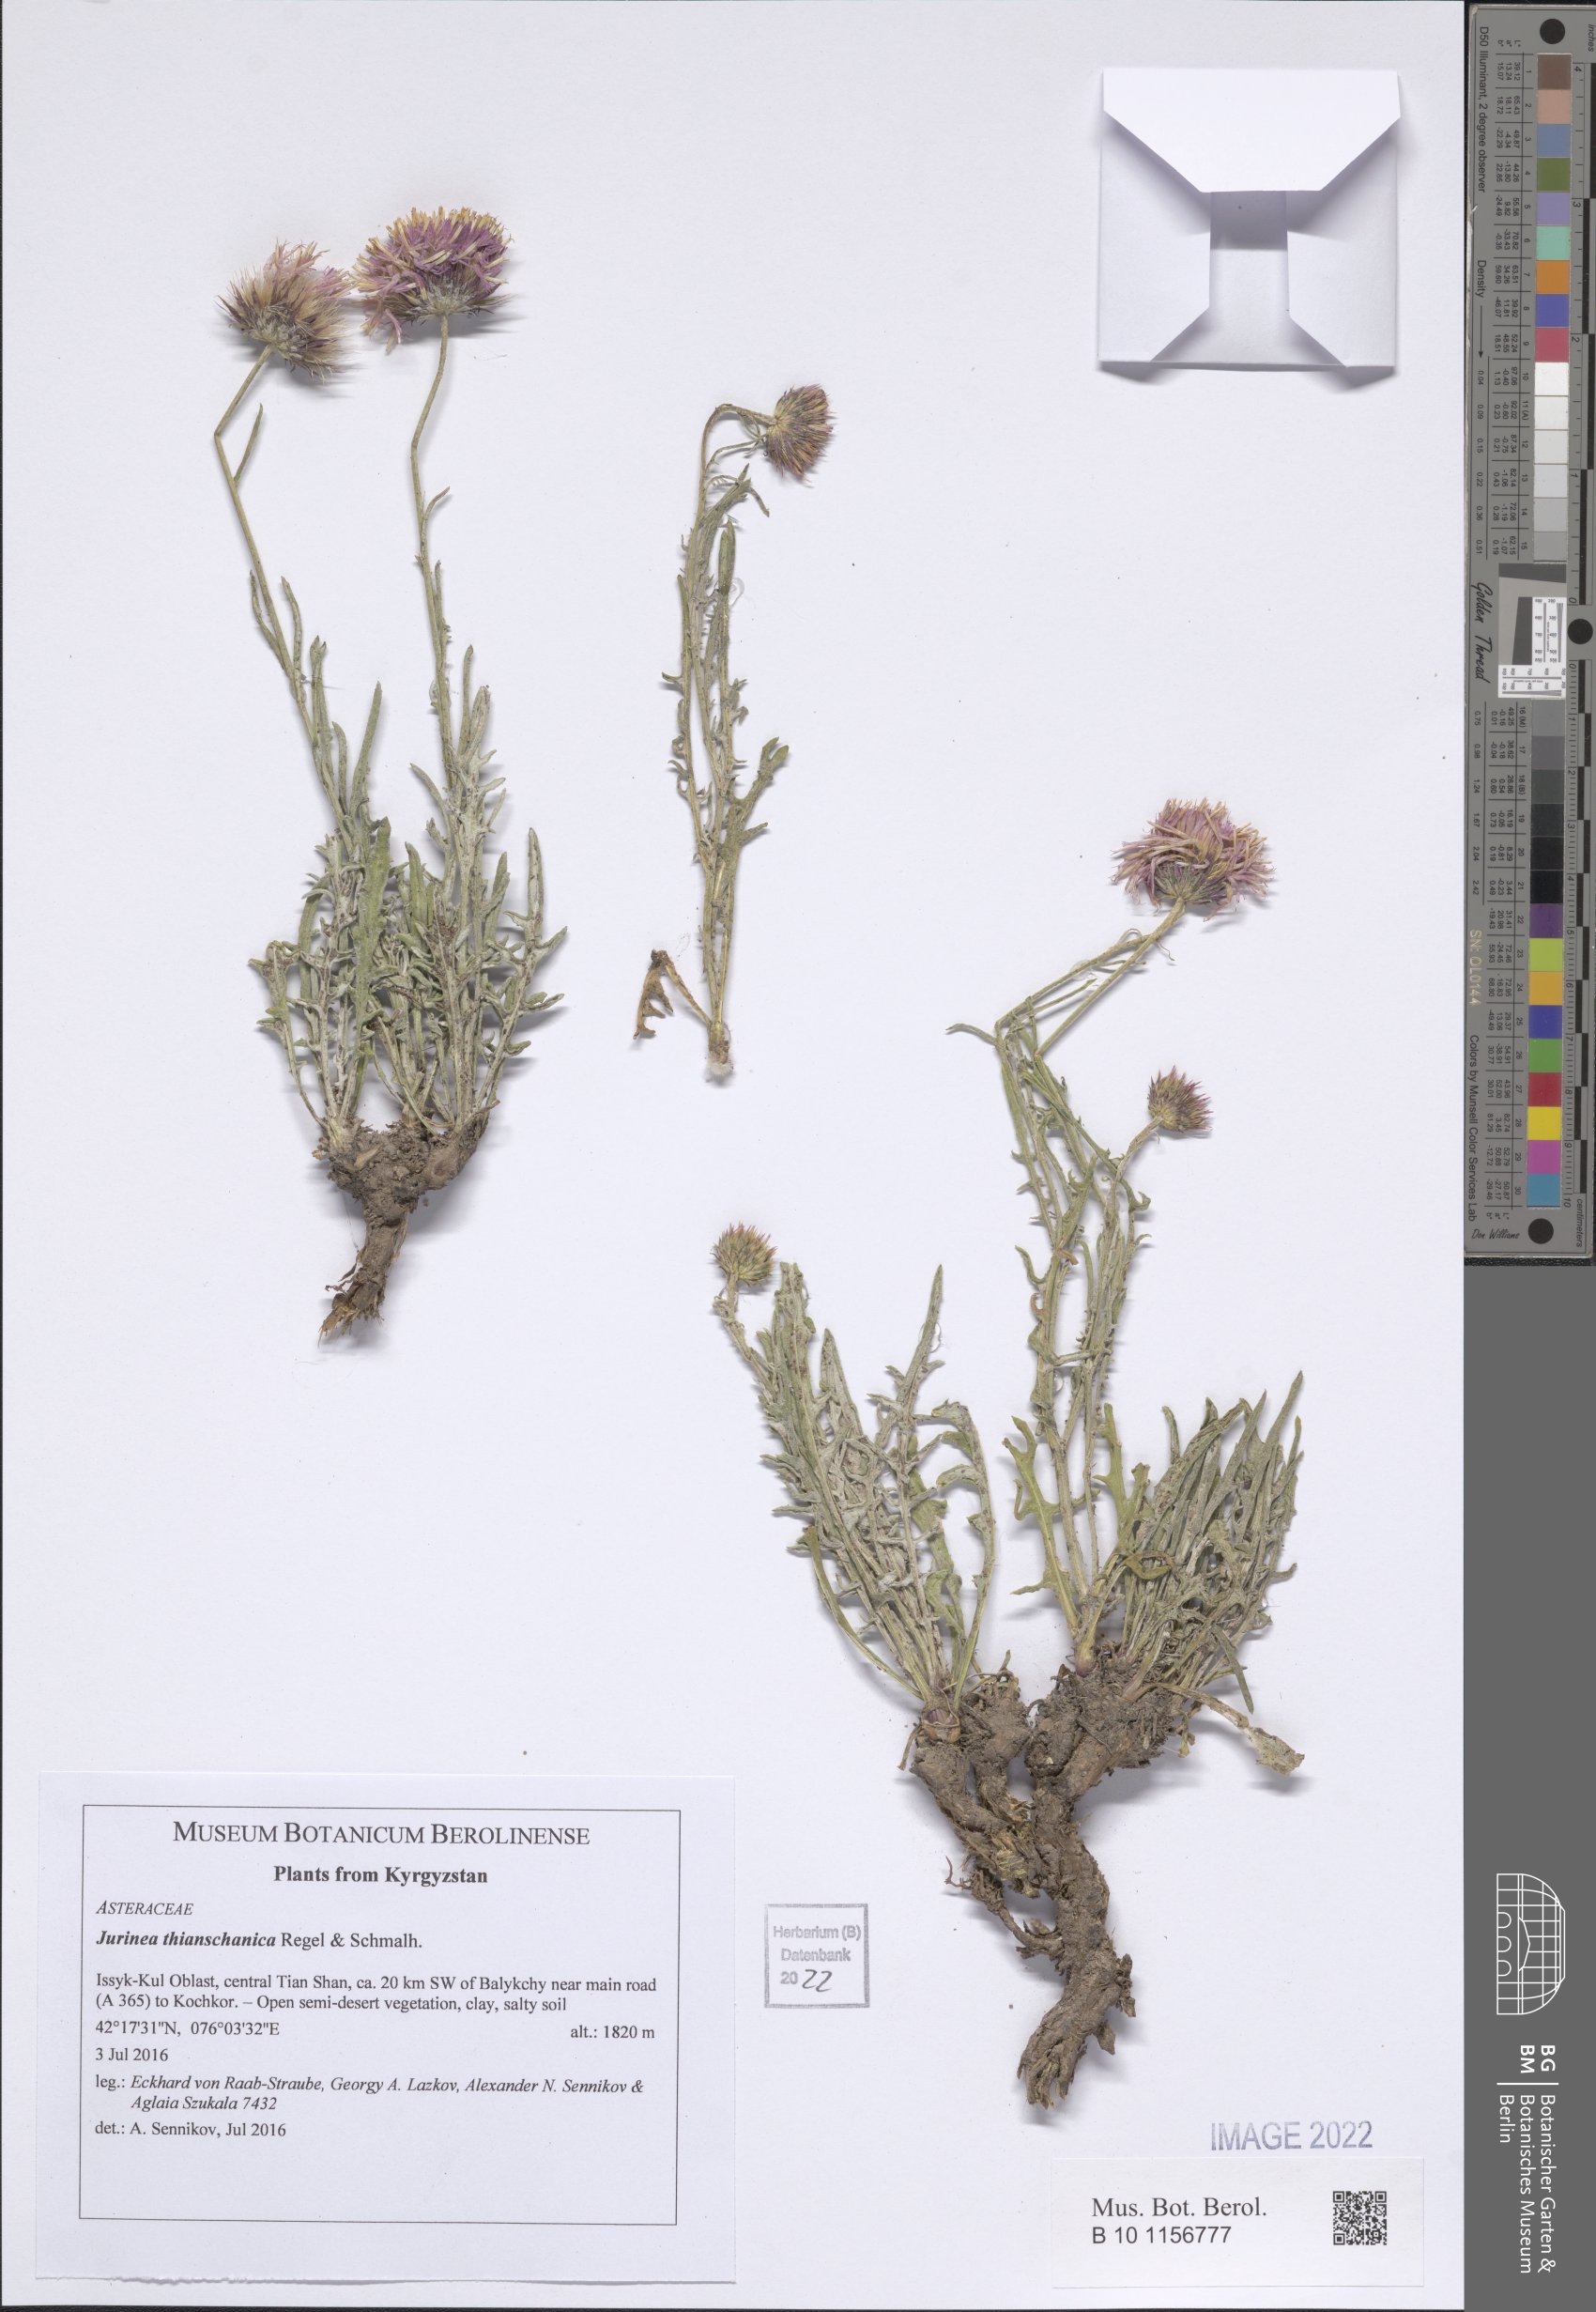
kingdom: Plantae
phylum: Tracheophyta
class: Magnoliopsida
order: Asterales
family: Asteraceae
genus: Jurinea
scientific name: Jurinea thianschanica
